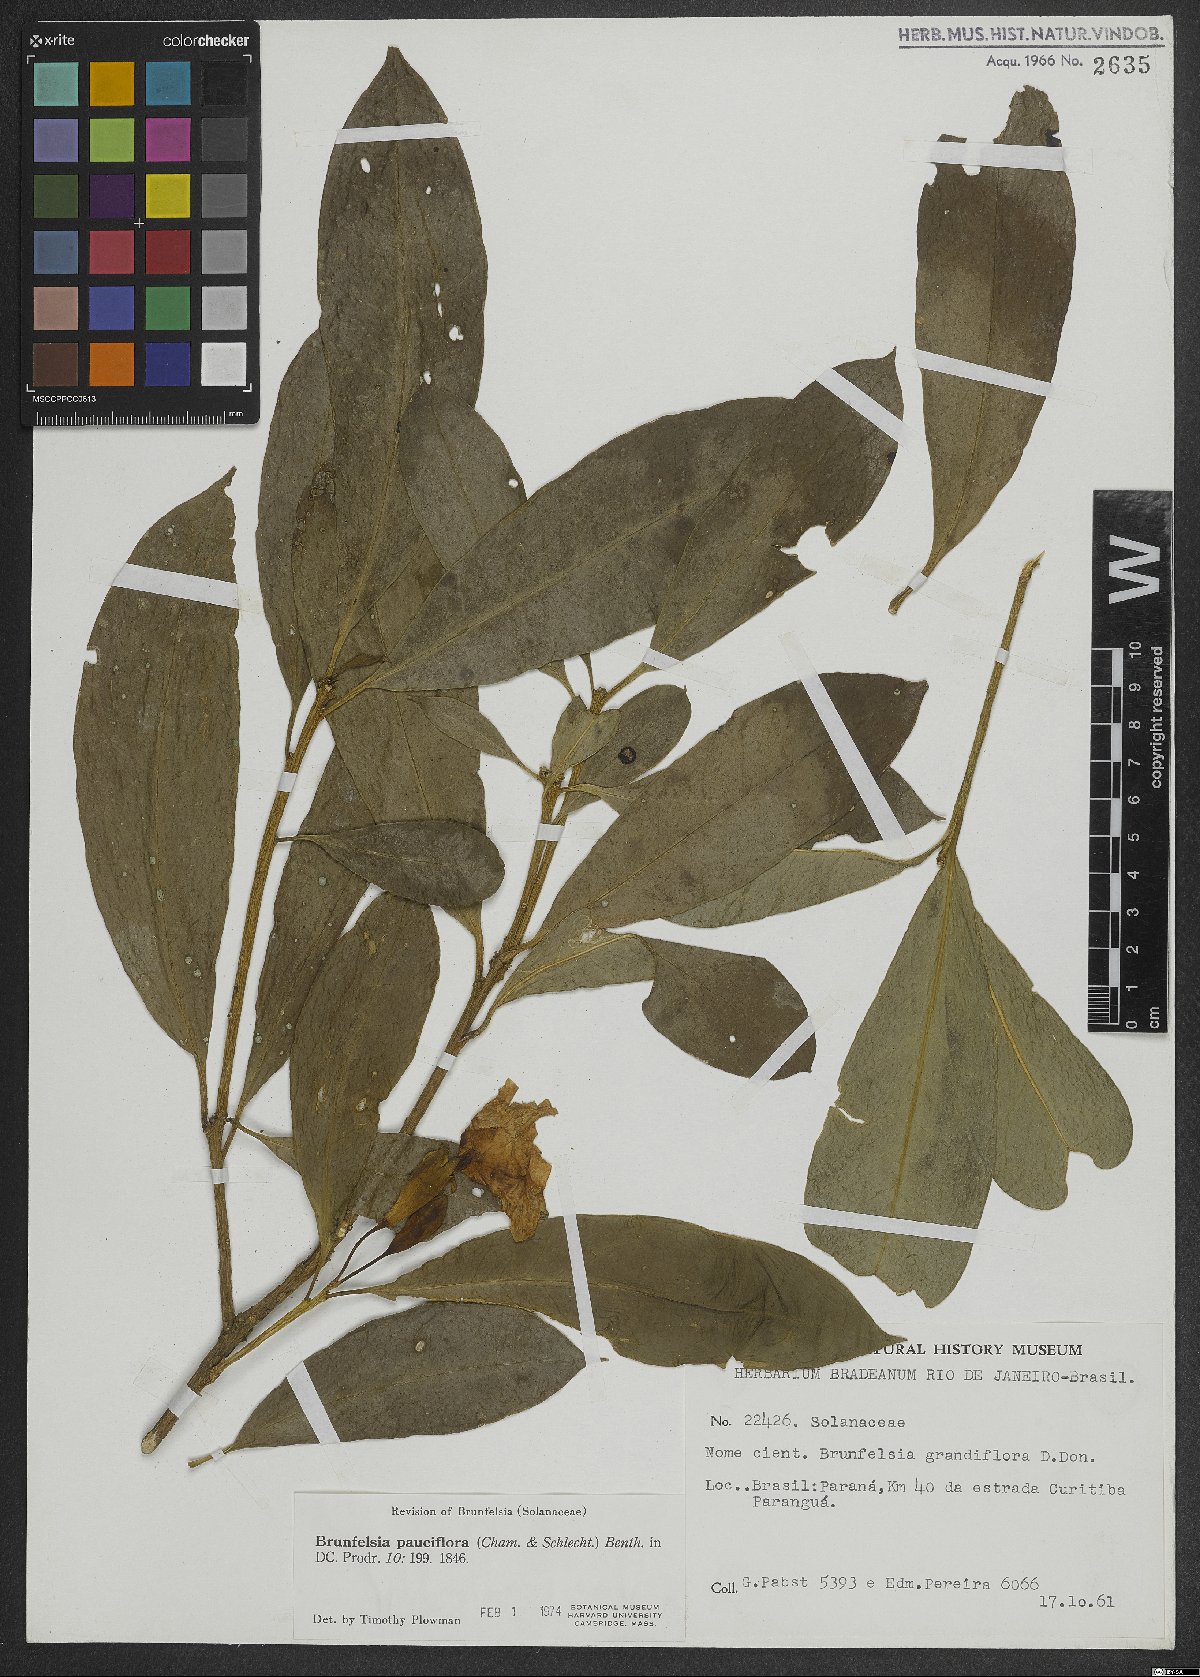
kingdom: Plantae
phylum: Tracheophyta
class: Magnoliopsida
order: Solanales
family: Solanaceae
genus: Brunfelsia
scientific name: Brunfelsia pauciflora
